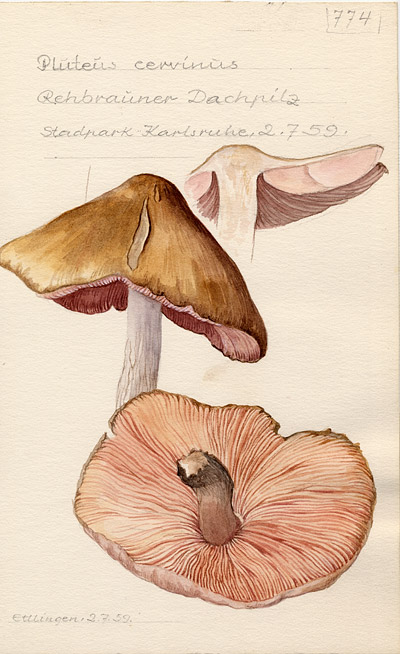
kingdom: Fungi
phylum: Basidiomycota
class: Agaricomycetes
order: Agaricales
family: Pluteaceae
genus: Pluteus
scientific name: Pluteus cervinus
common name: Deer shield
